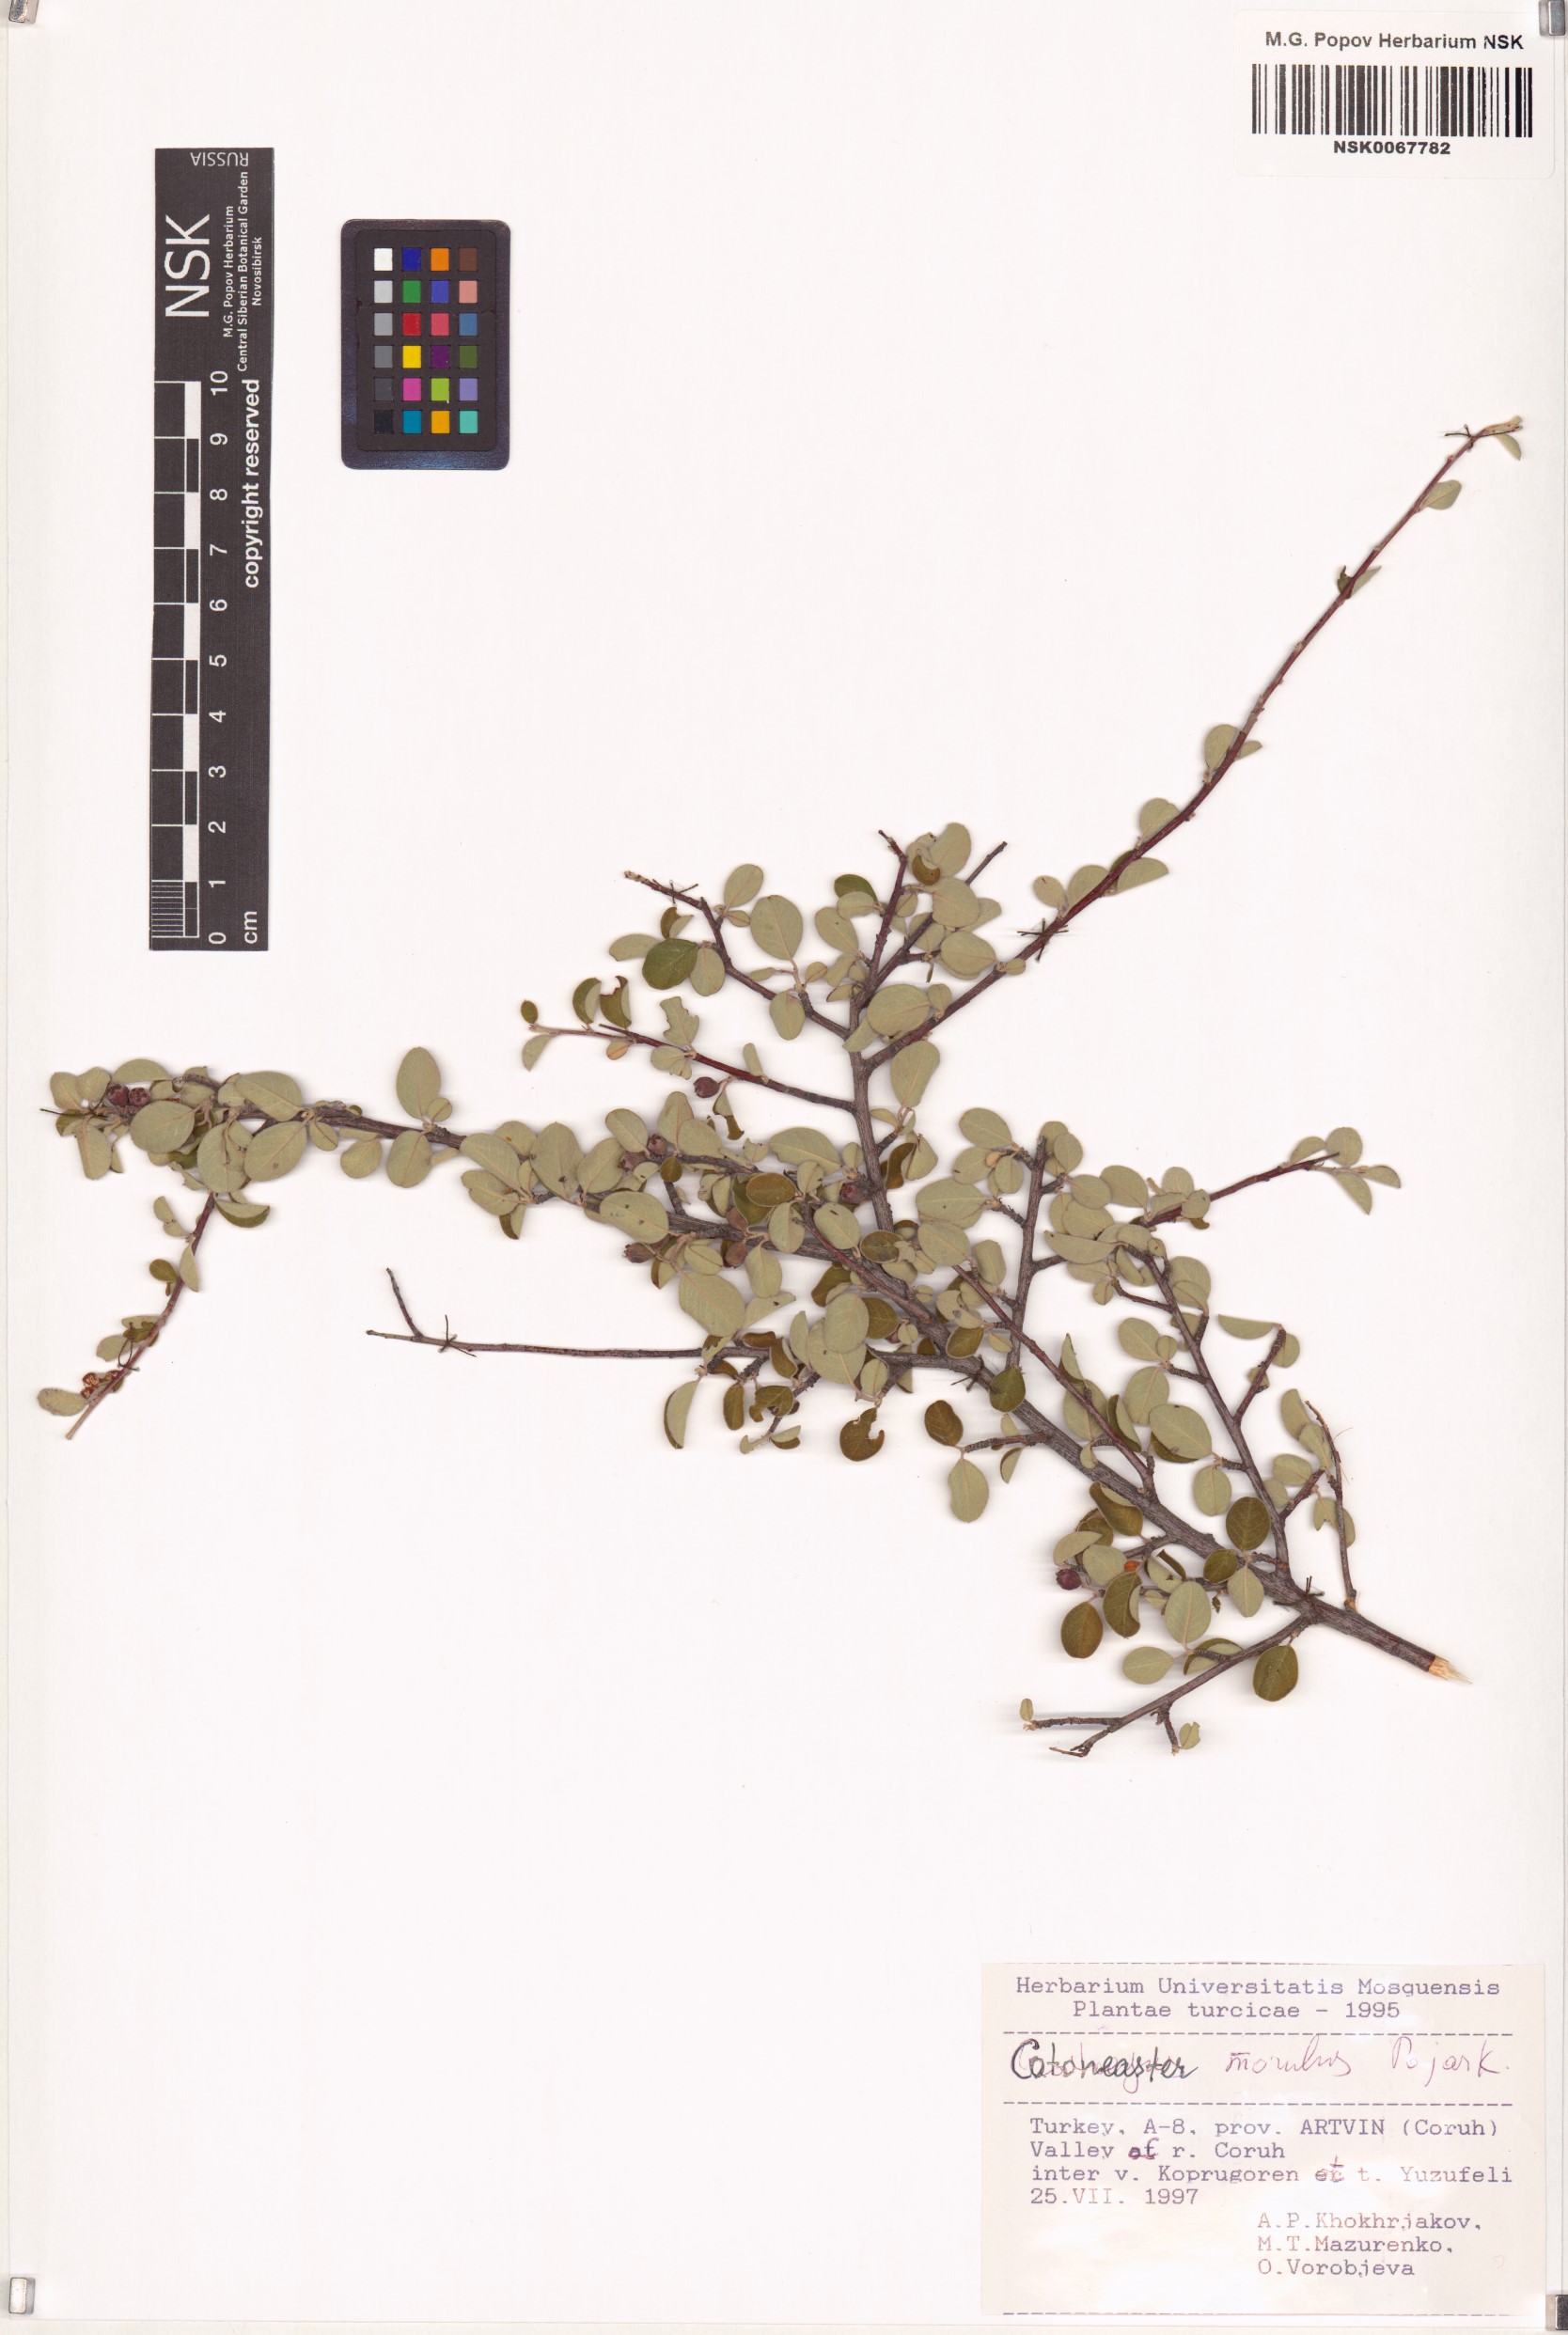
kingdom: Plantae
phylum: Tracheophyta
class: Magnoliopsida
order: Rosales
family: Rosaceae
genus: Cotoneaster
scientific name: Cotoneaster morulus
